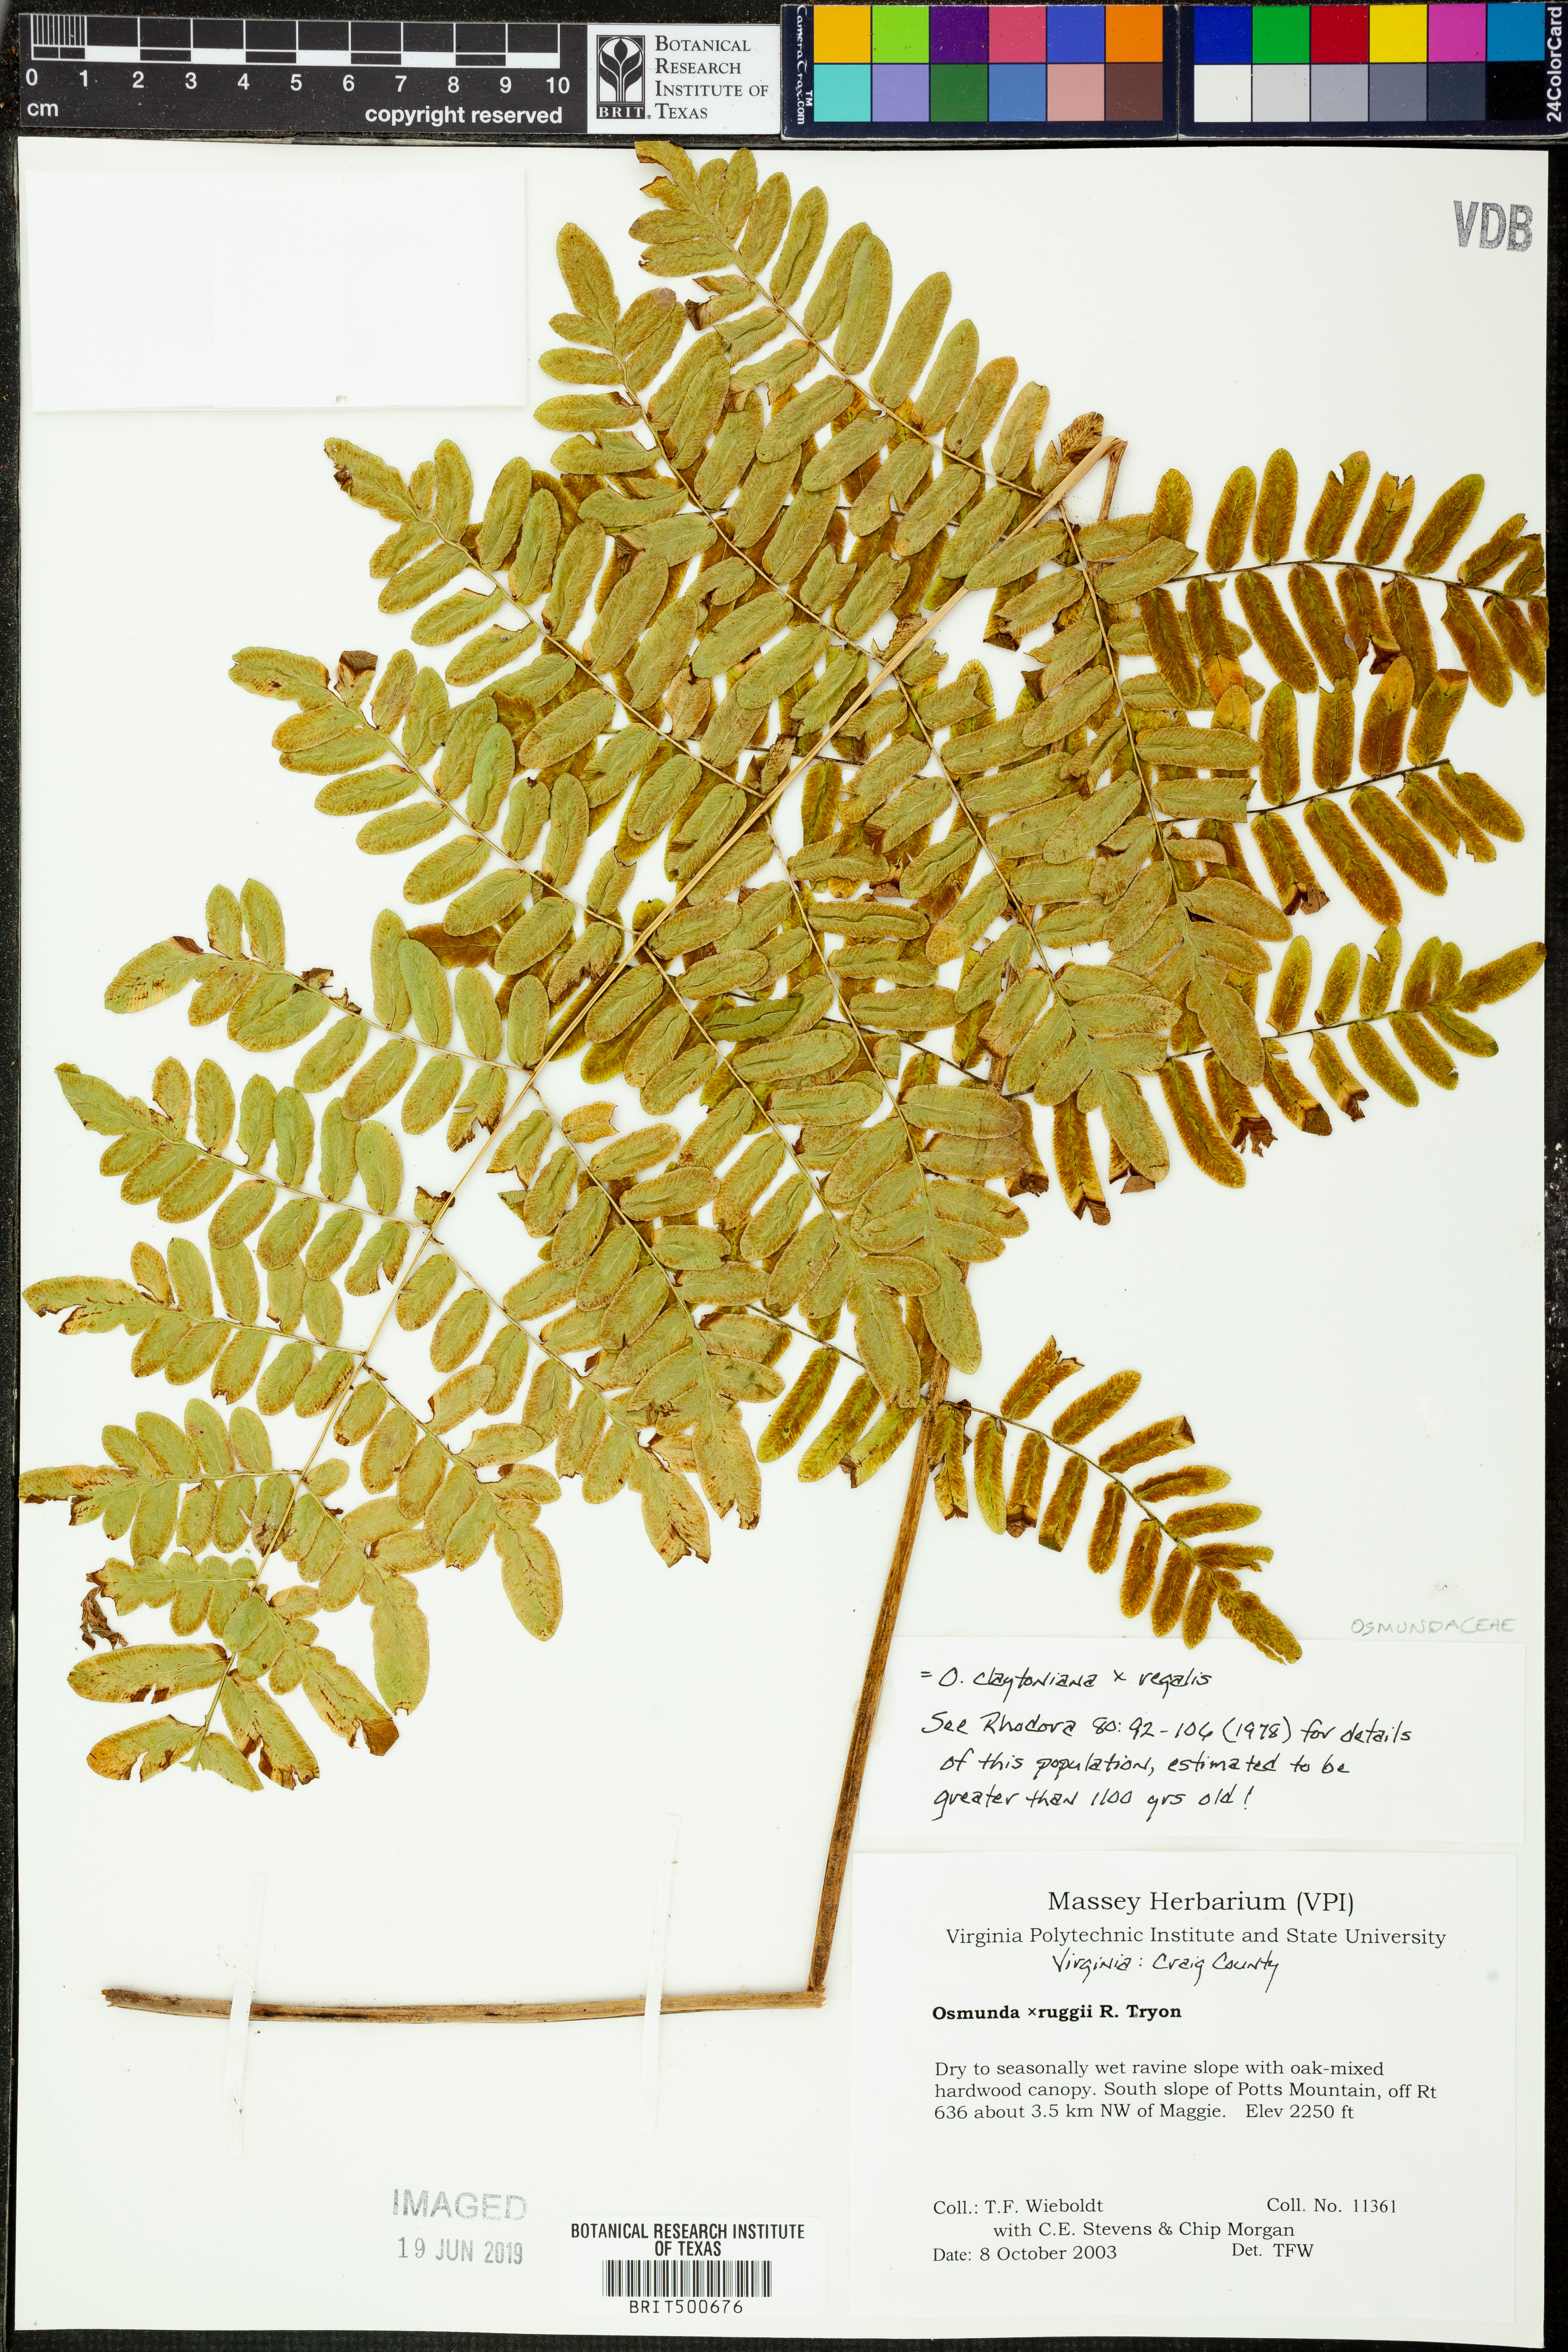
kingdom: Plantae
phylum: Tracheophyta
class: Polypodiopsida
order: Osmundales
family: Osmundaceae
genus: Osmunda
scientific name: Osmunda
